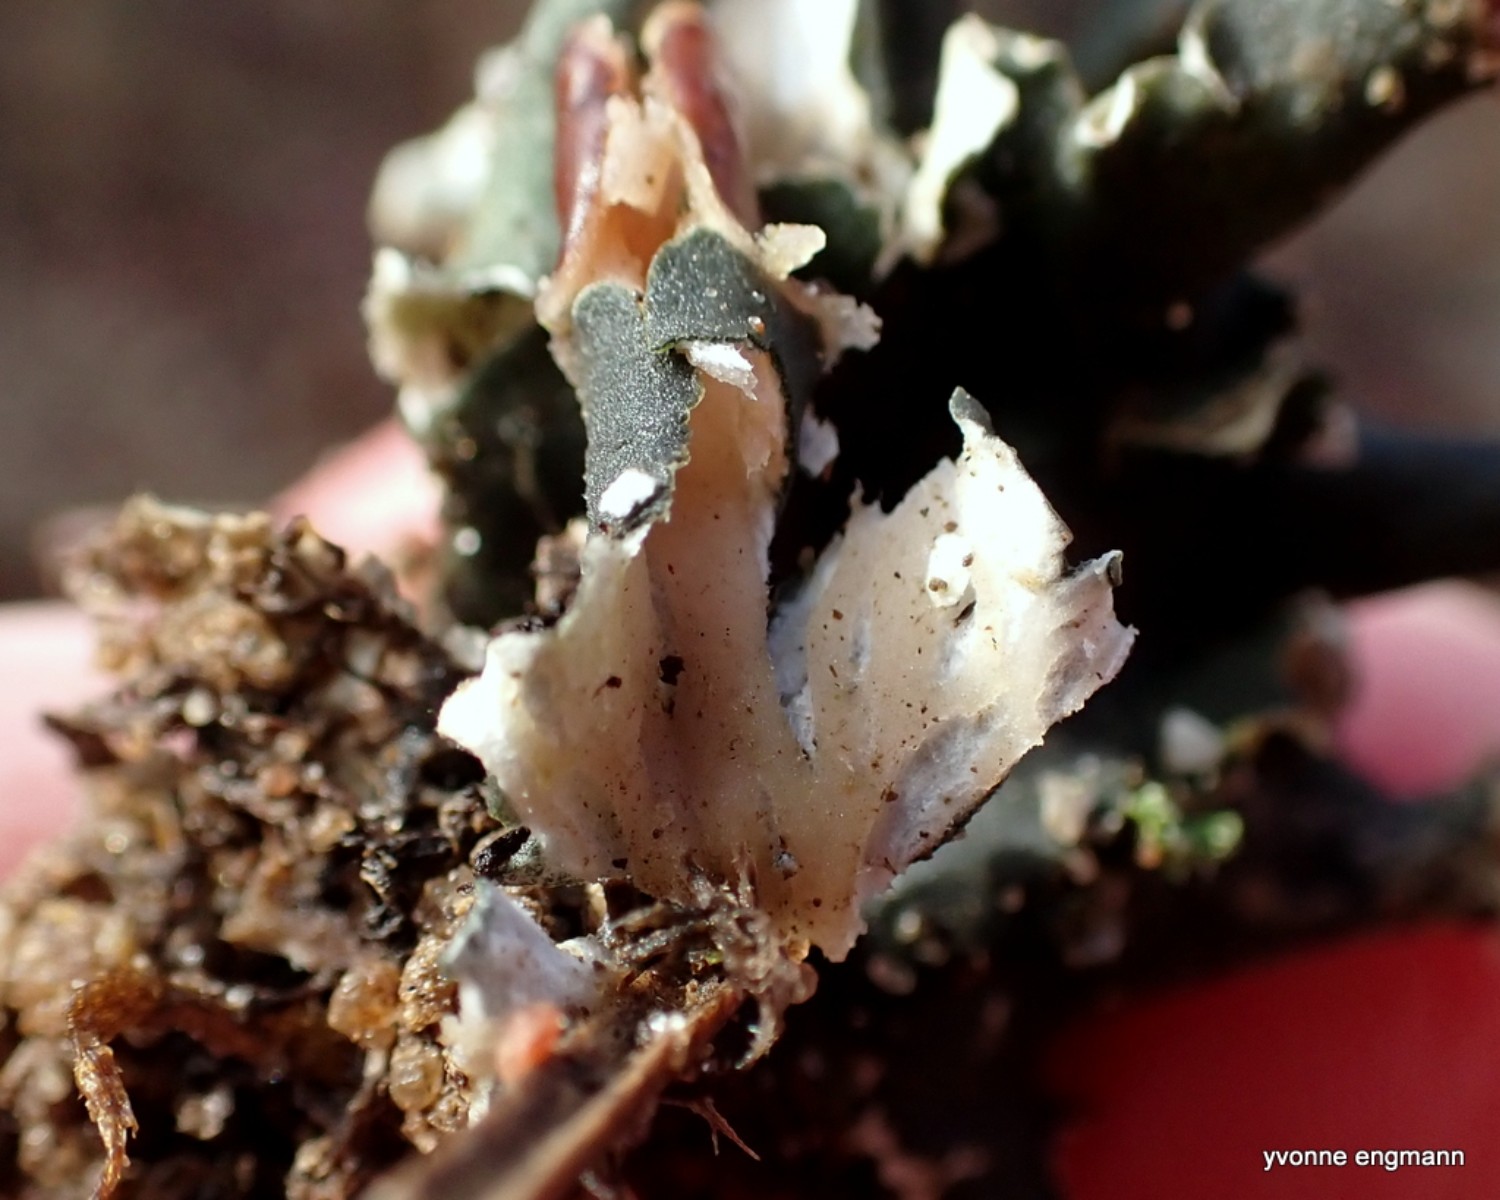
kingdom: Fungi
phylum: Ascomycota
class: Lecanoromycetes
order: Peltigerales
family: Peltigeraceae
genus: Peltigera
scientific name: Peltigera didactyla
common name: liden skjoldlav
